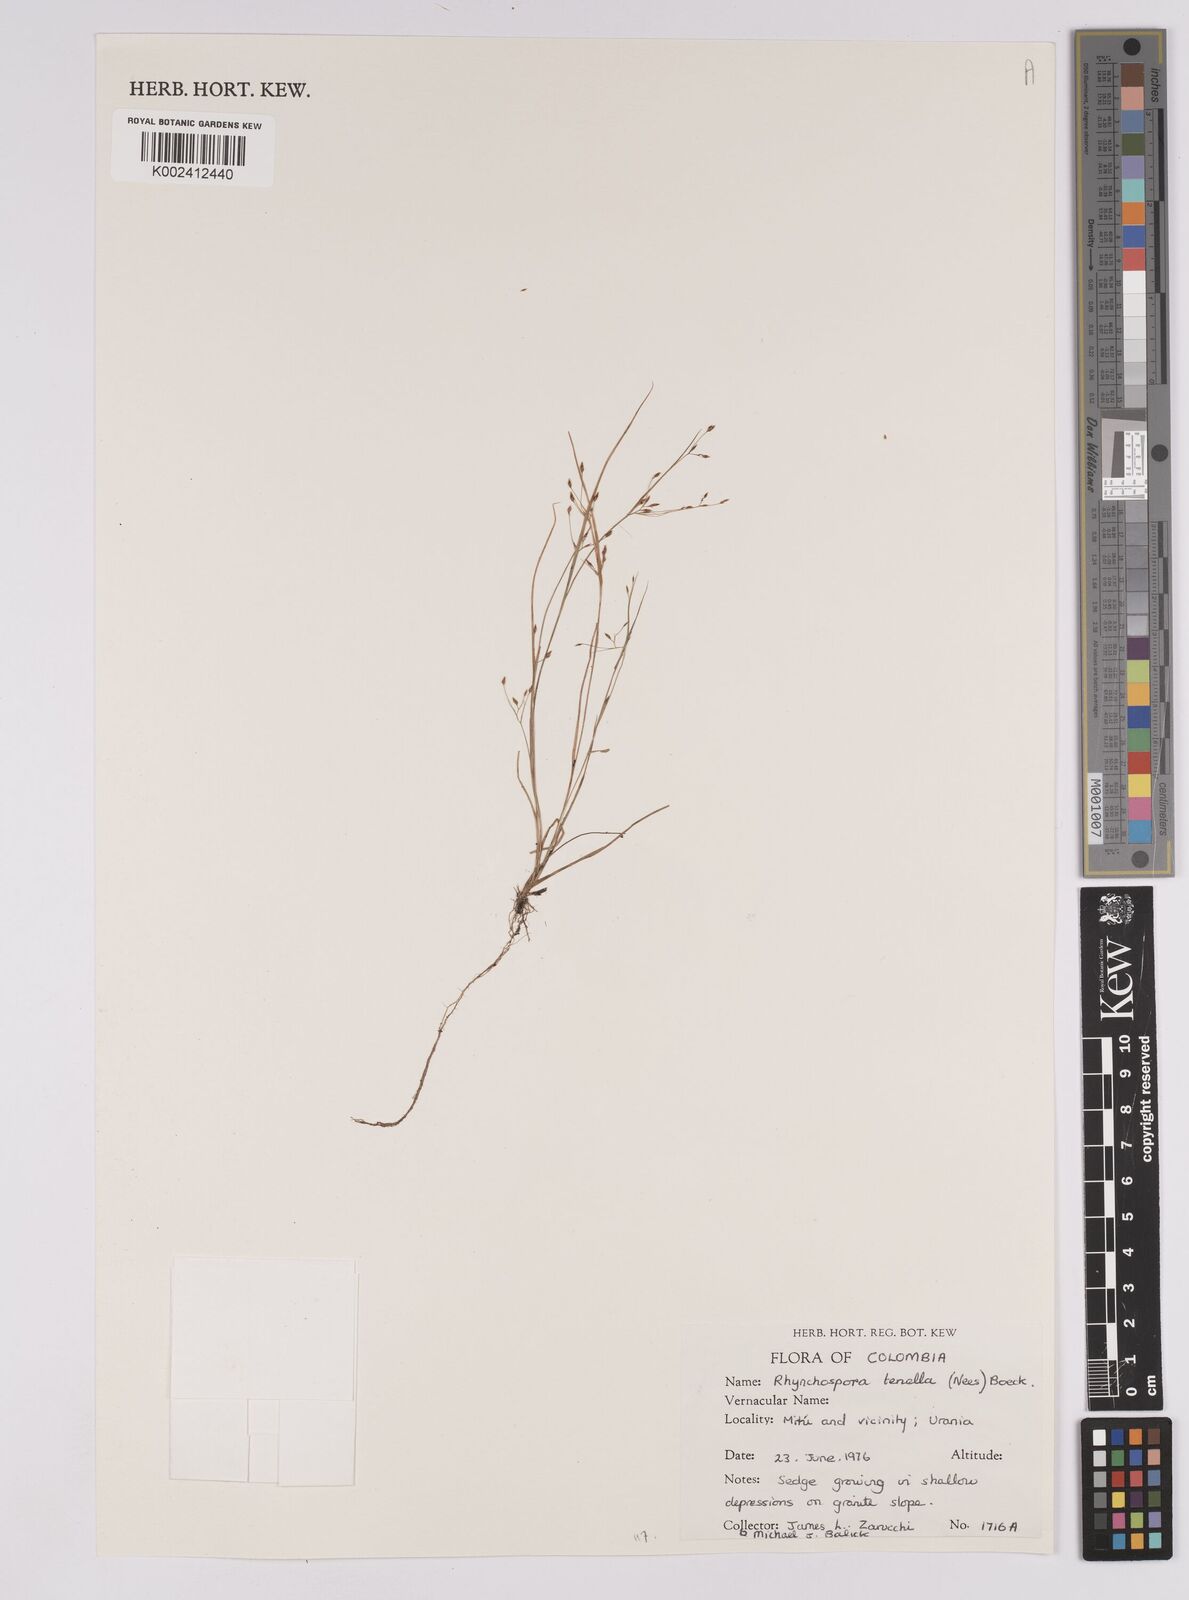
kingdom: Plantae
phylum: Tracheophyta
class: Liliopsida
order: Poales
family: Cyperaceae
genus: Rhynchospora
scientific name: Rhynchospora tenella
